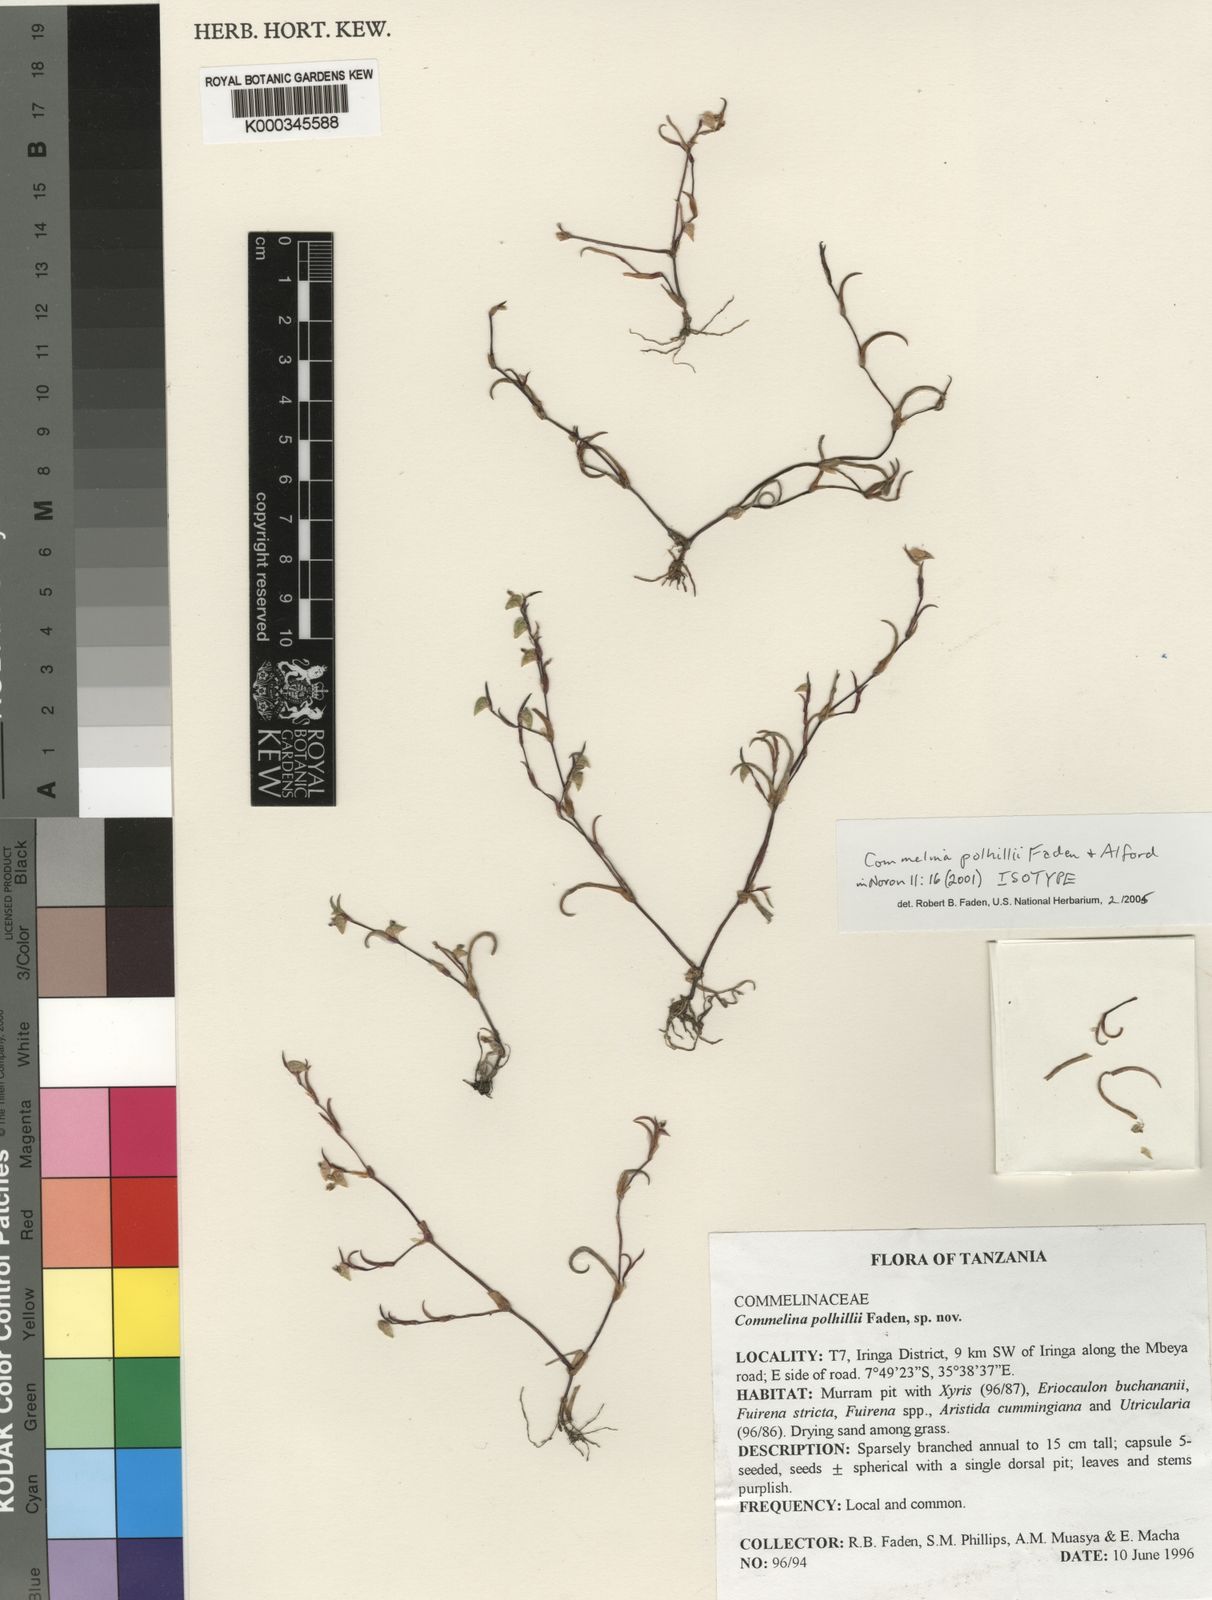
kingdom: Plantae
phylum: Tracheophyta
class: Liliopsida
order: Commelinales
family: Commelinaceae
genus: Commelina
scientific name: Commelina polhillii
